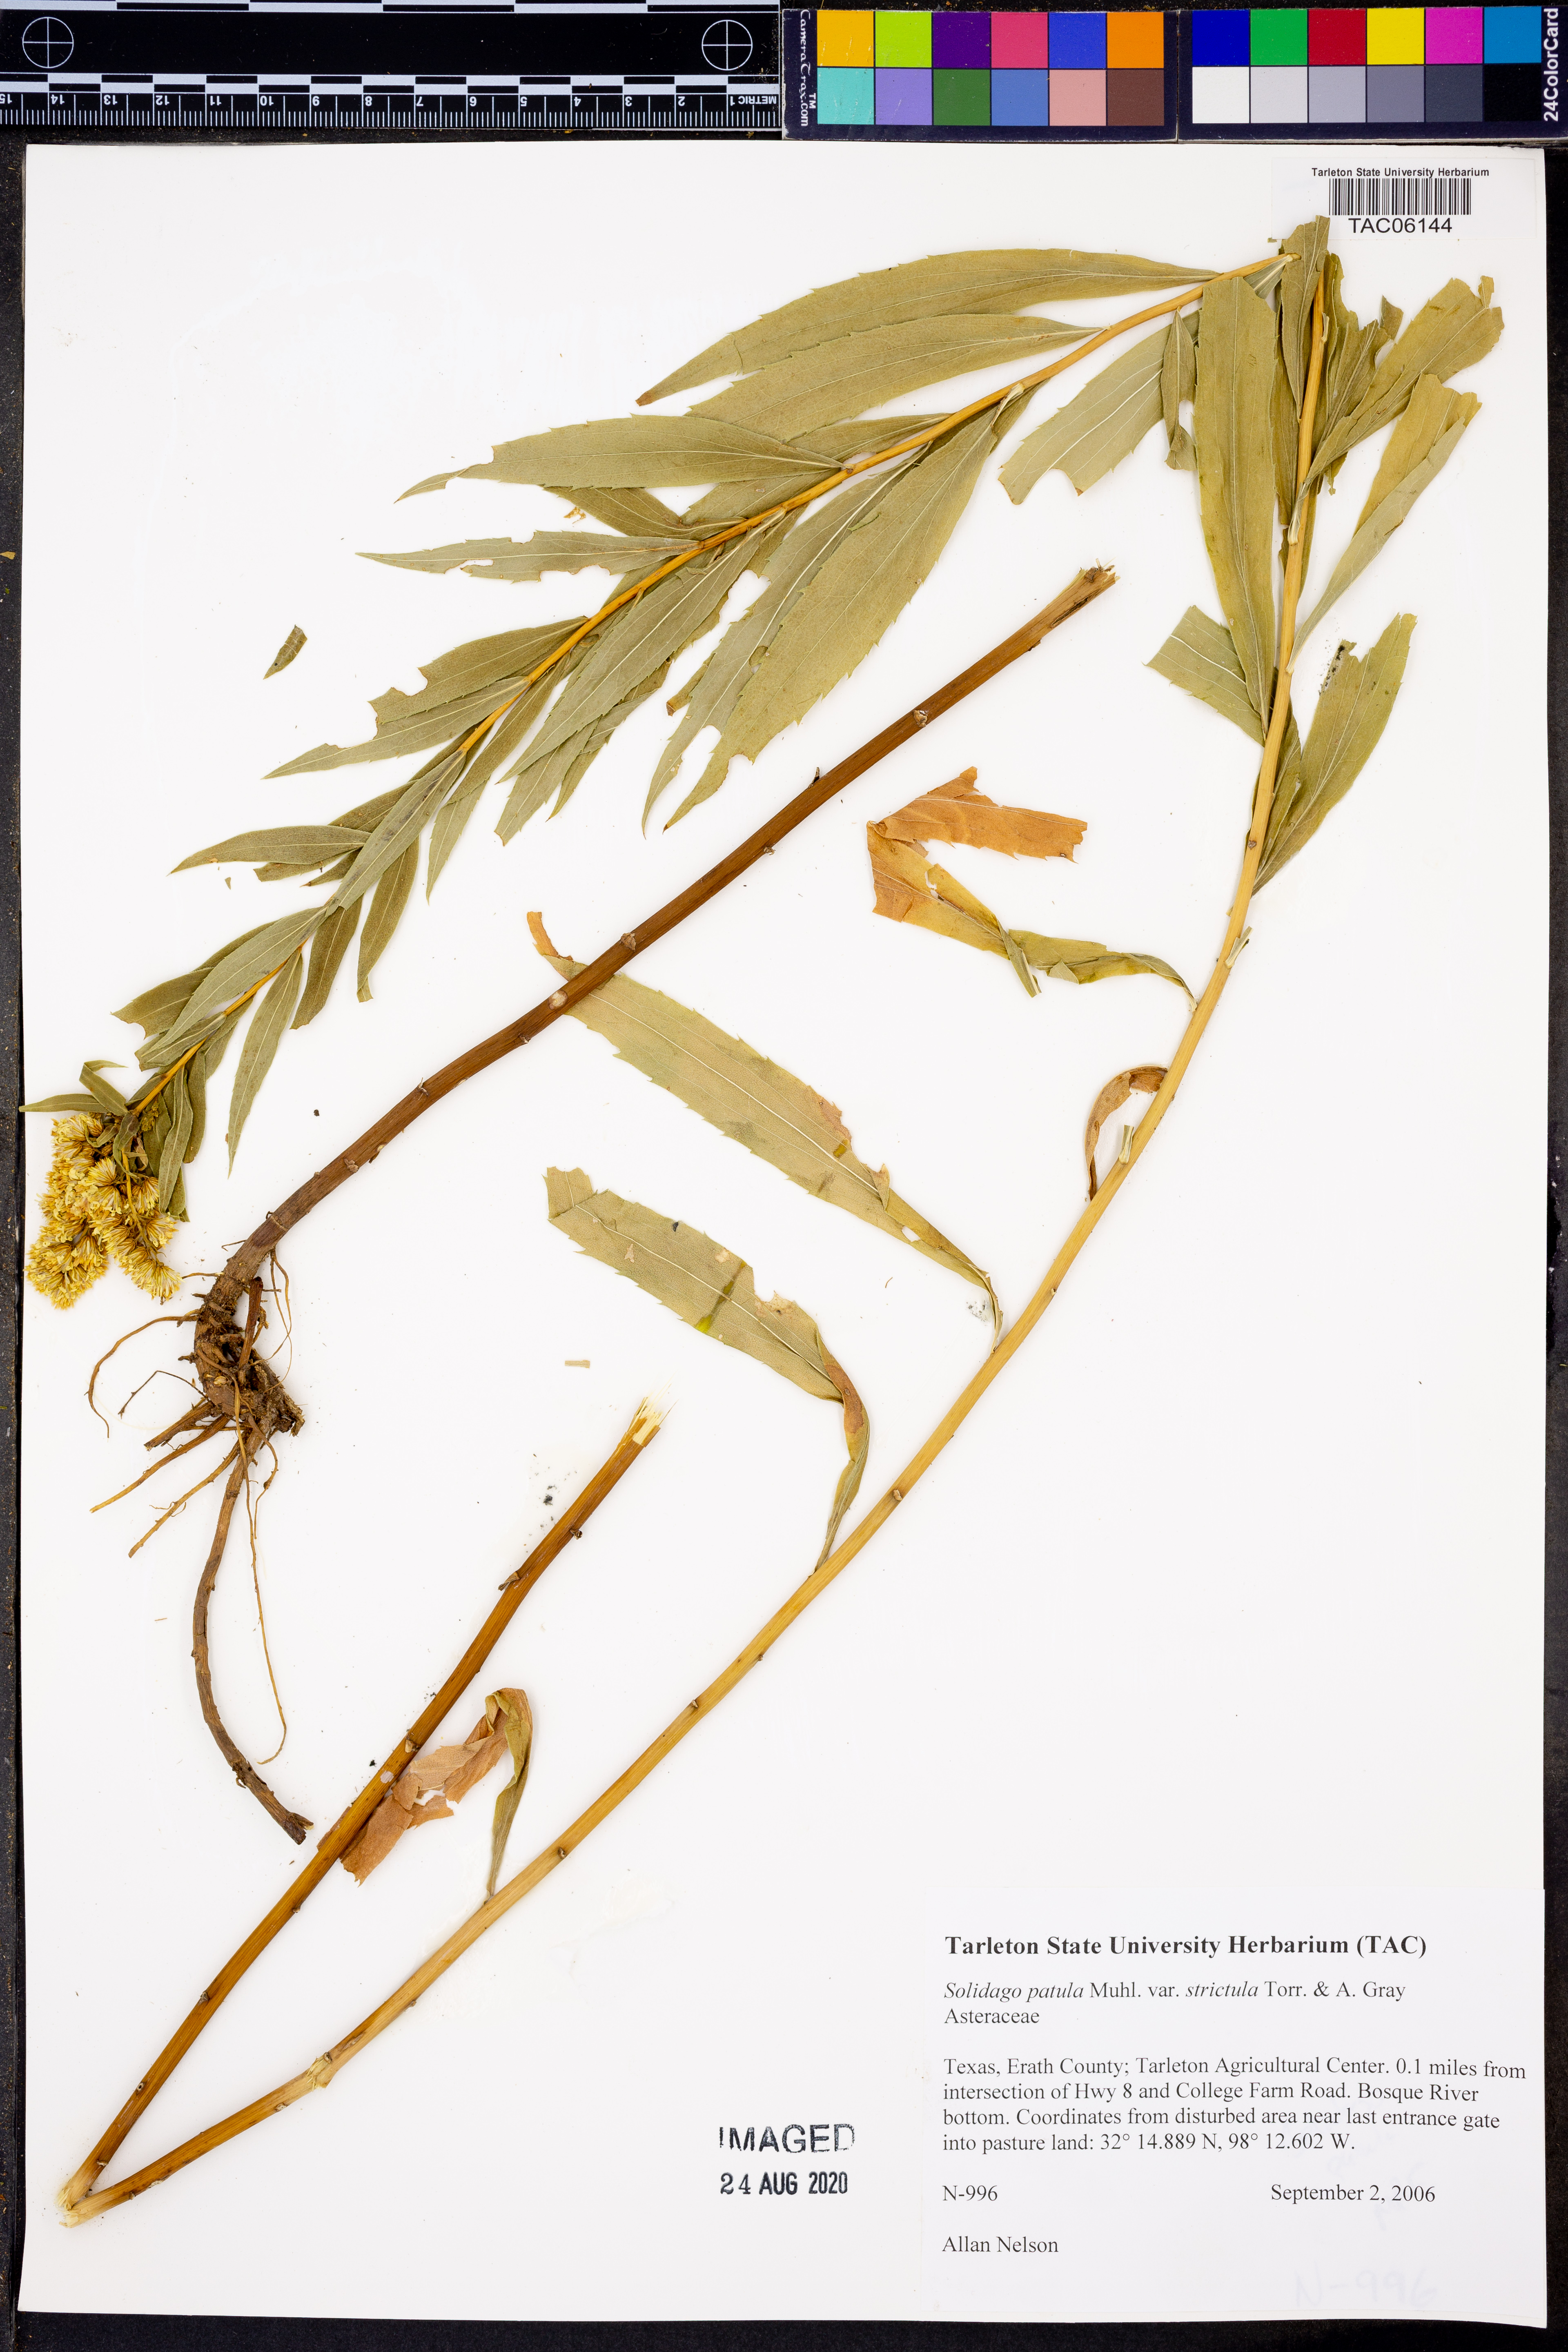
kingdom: Plantae
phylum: Tracheophyta
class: Magnoliopsida
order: Asterales
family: Asteraceae
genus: Solidago
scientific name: Solidago salicina
